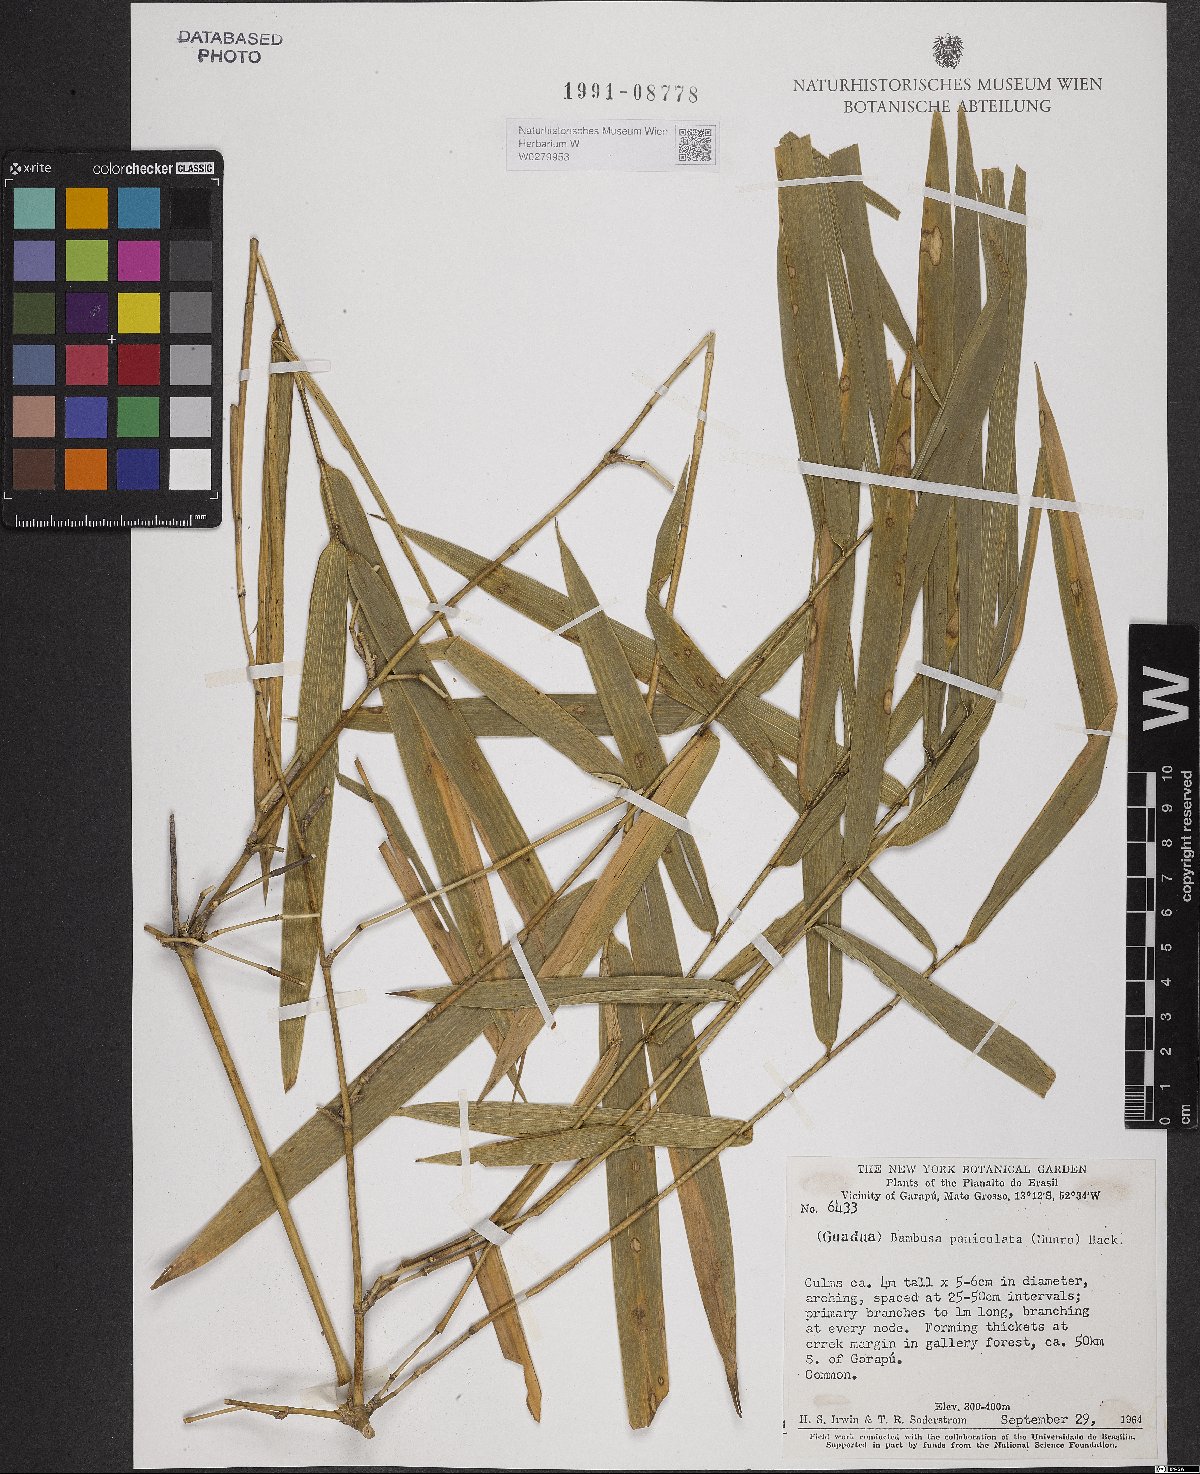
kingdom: Plantae
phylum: Tracheophyta
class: Liliopsida
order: Poales
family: Poaceae
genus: Guadua
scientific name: Guadua paniculata
